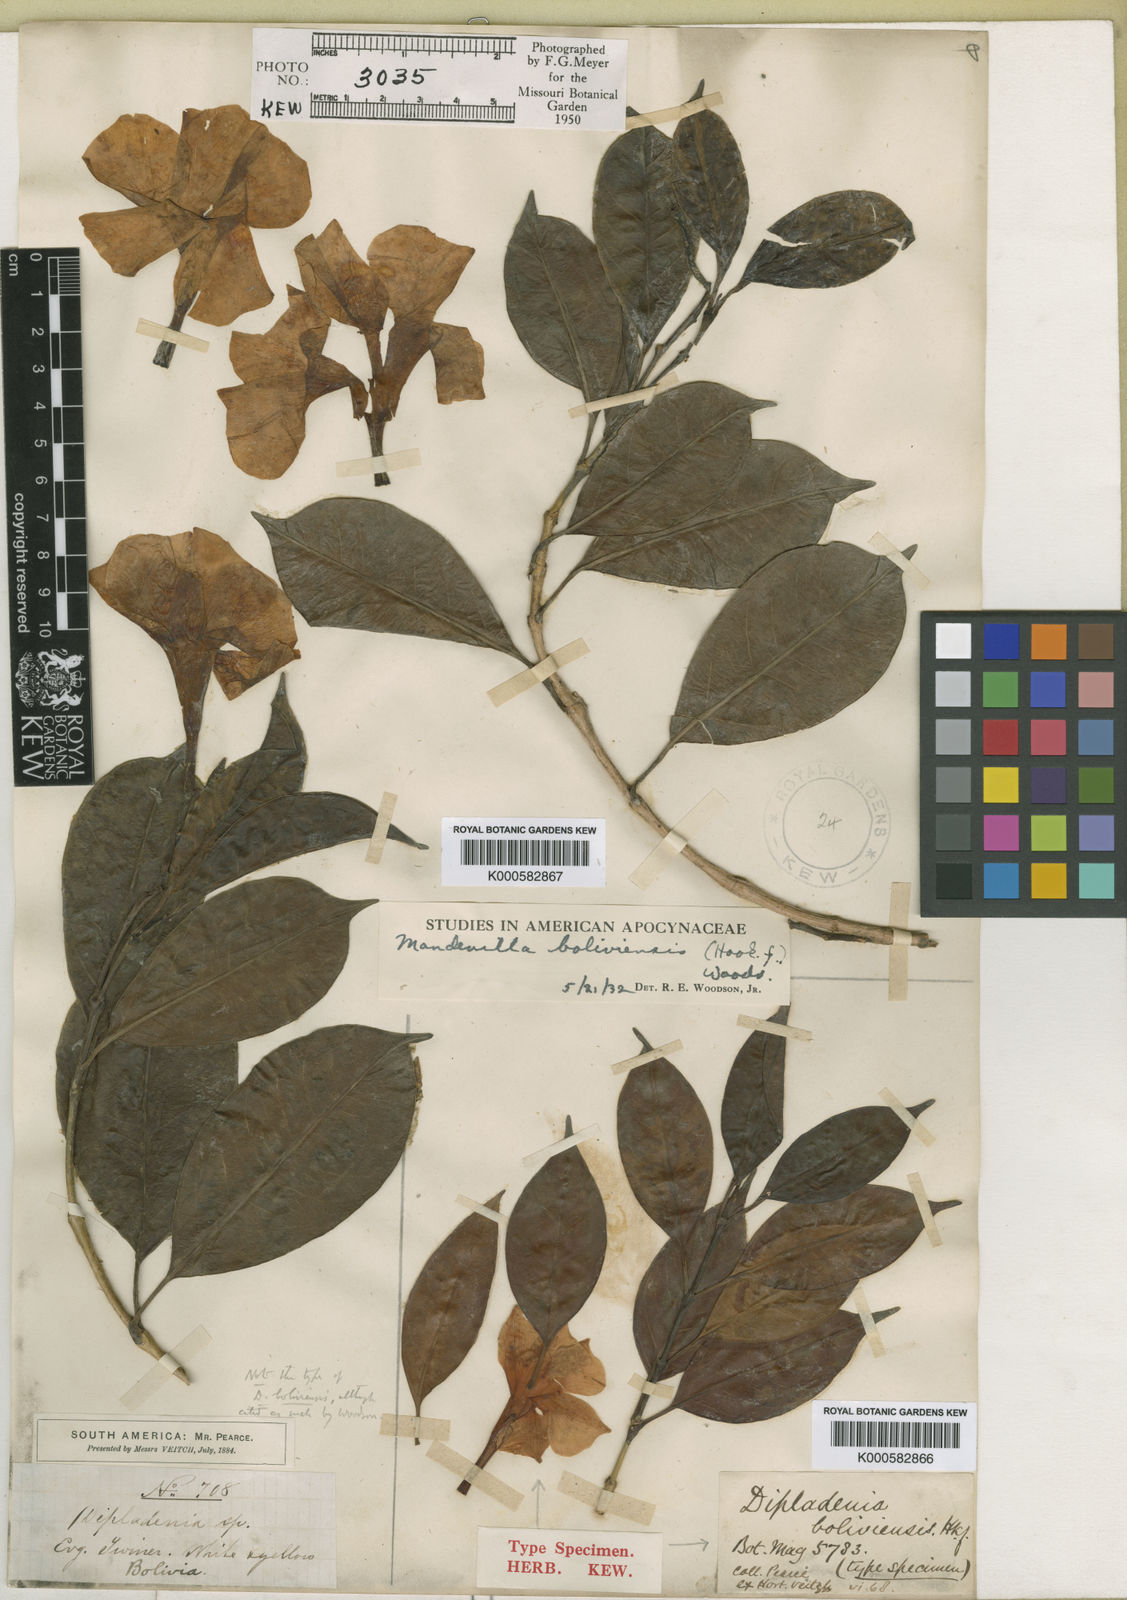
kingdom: Plantae
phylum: Tracheophyta
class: Magnoliopsida
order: Gentianales
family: Apocynaceae
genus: Mandevilla
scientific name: Mandevilla boliviensis
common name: White dipladenia
